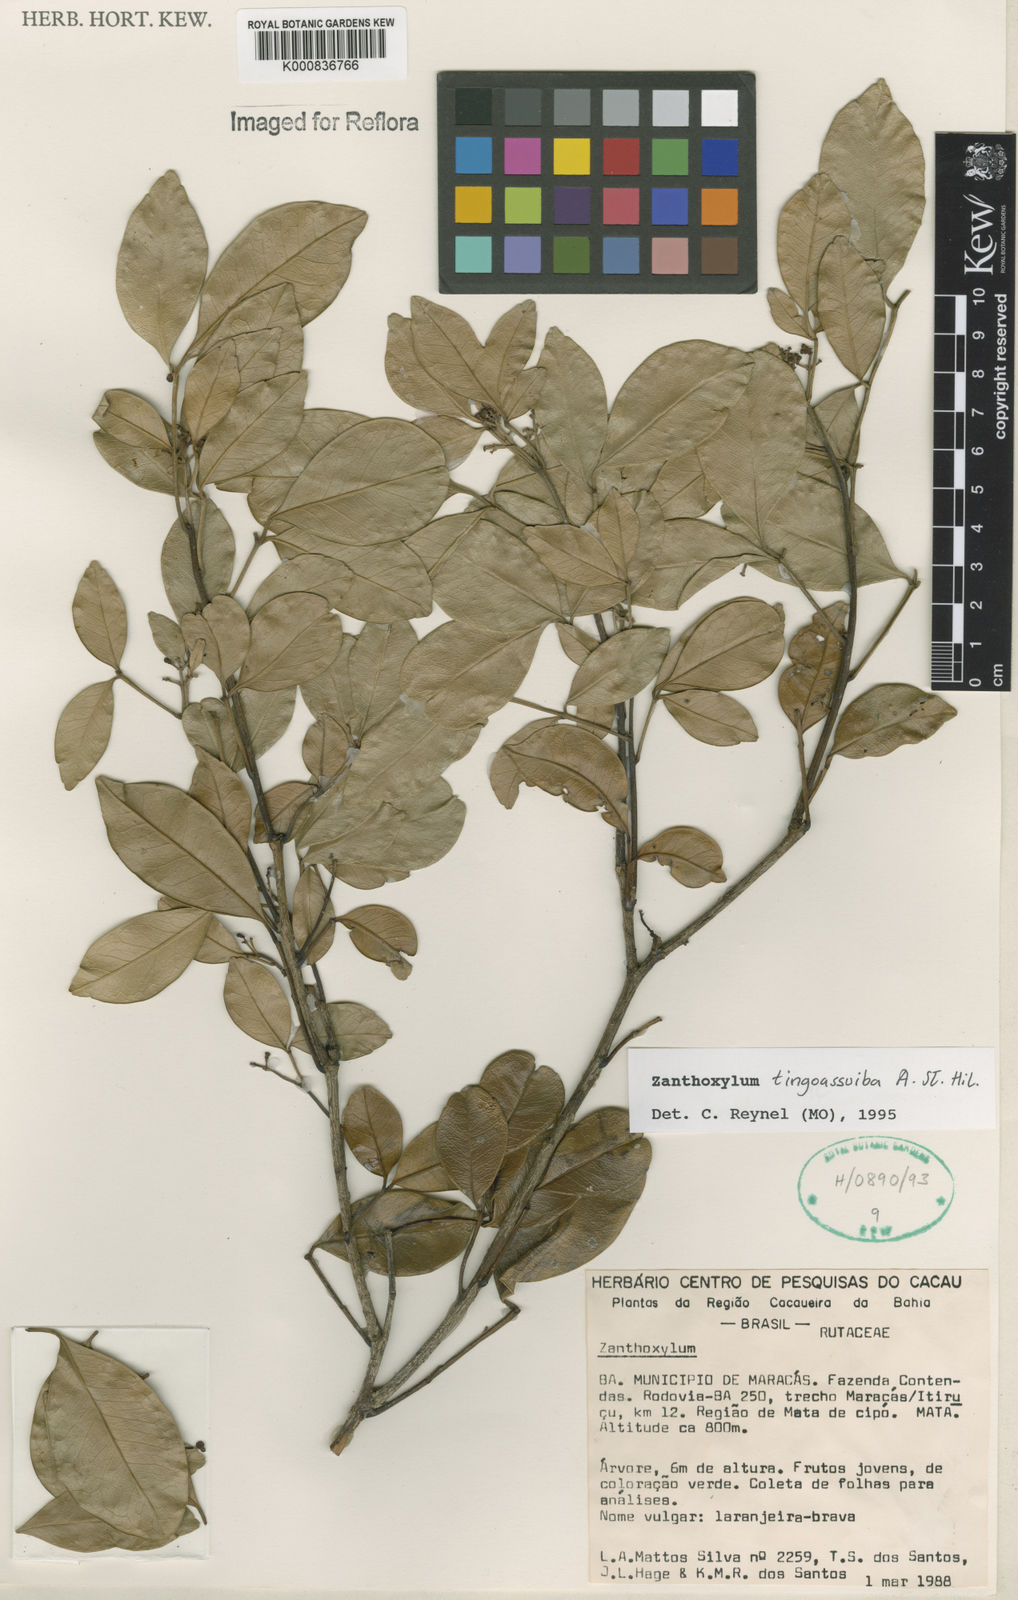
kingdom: Plantae
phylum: Tracheophyta
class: Magnoliopsida
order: Sapindales
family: Rutaceae
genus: Zanthoxylum
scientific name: Zanthoxylum tingoassuiba
